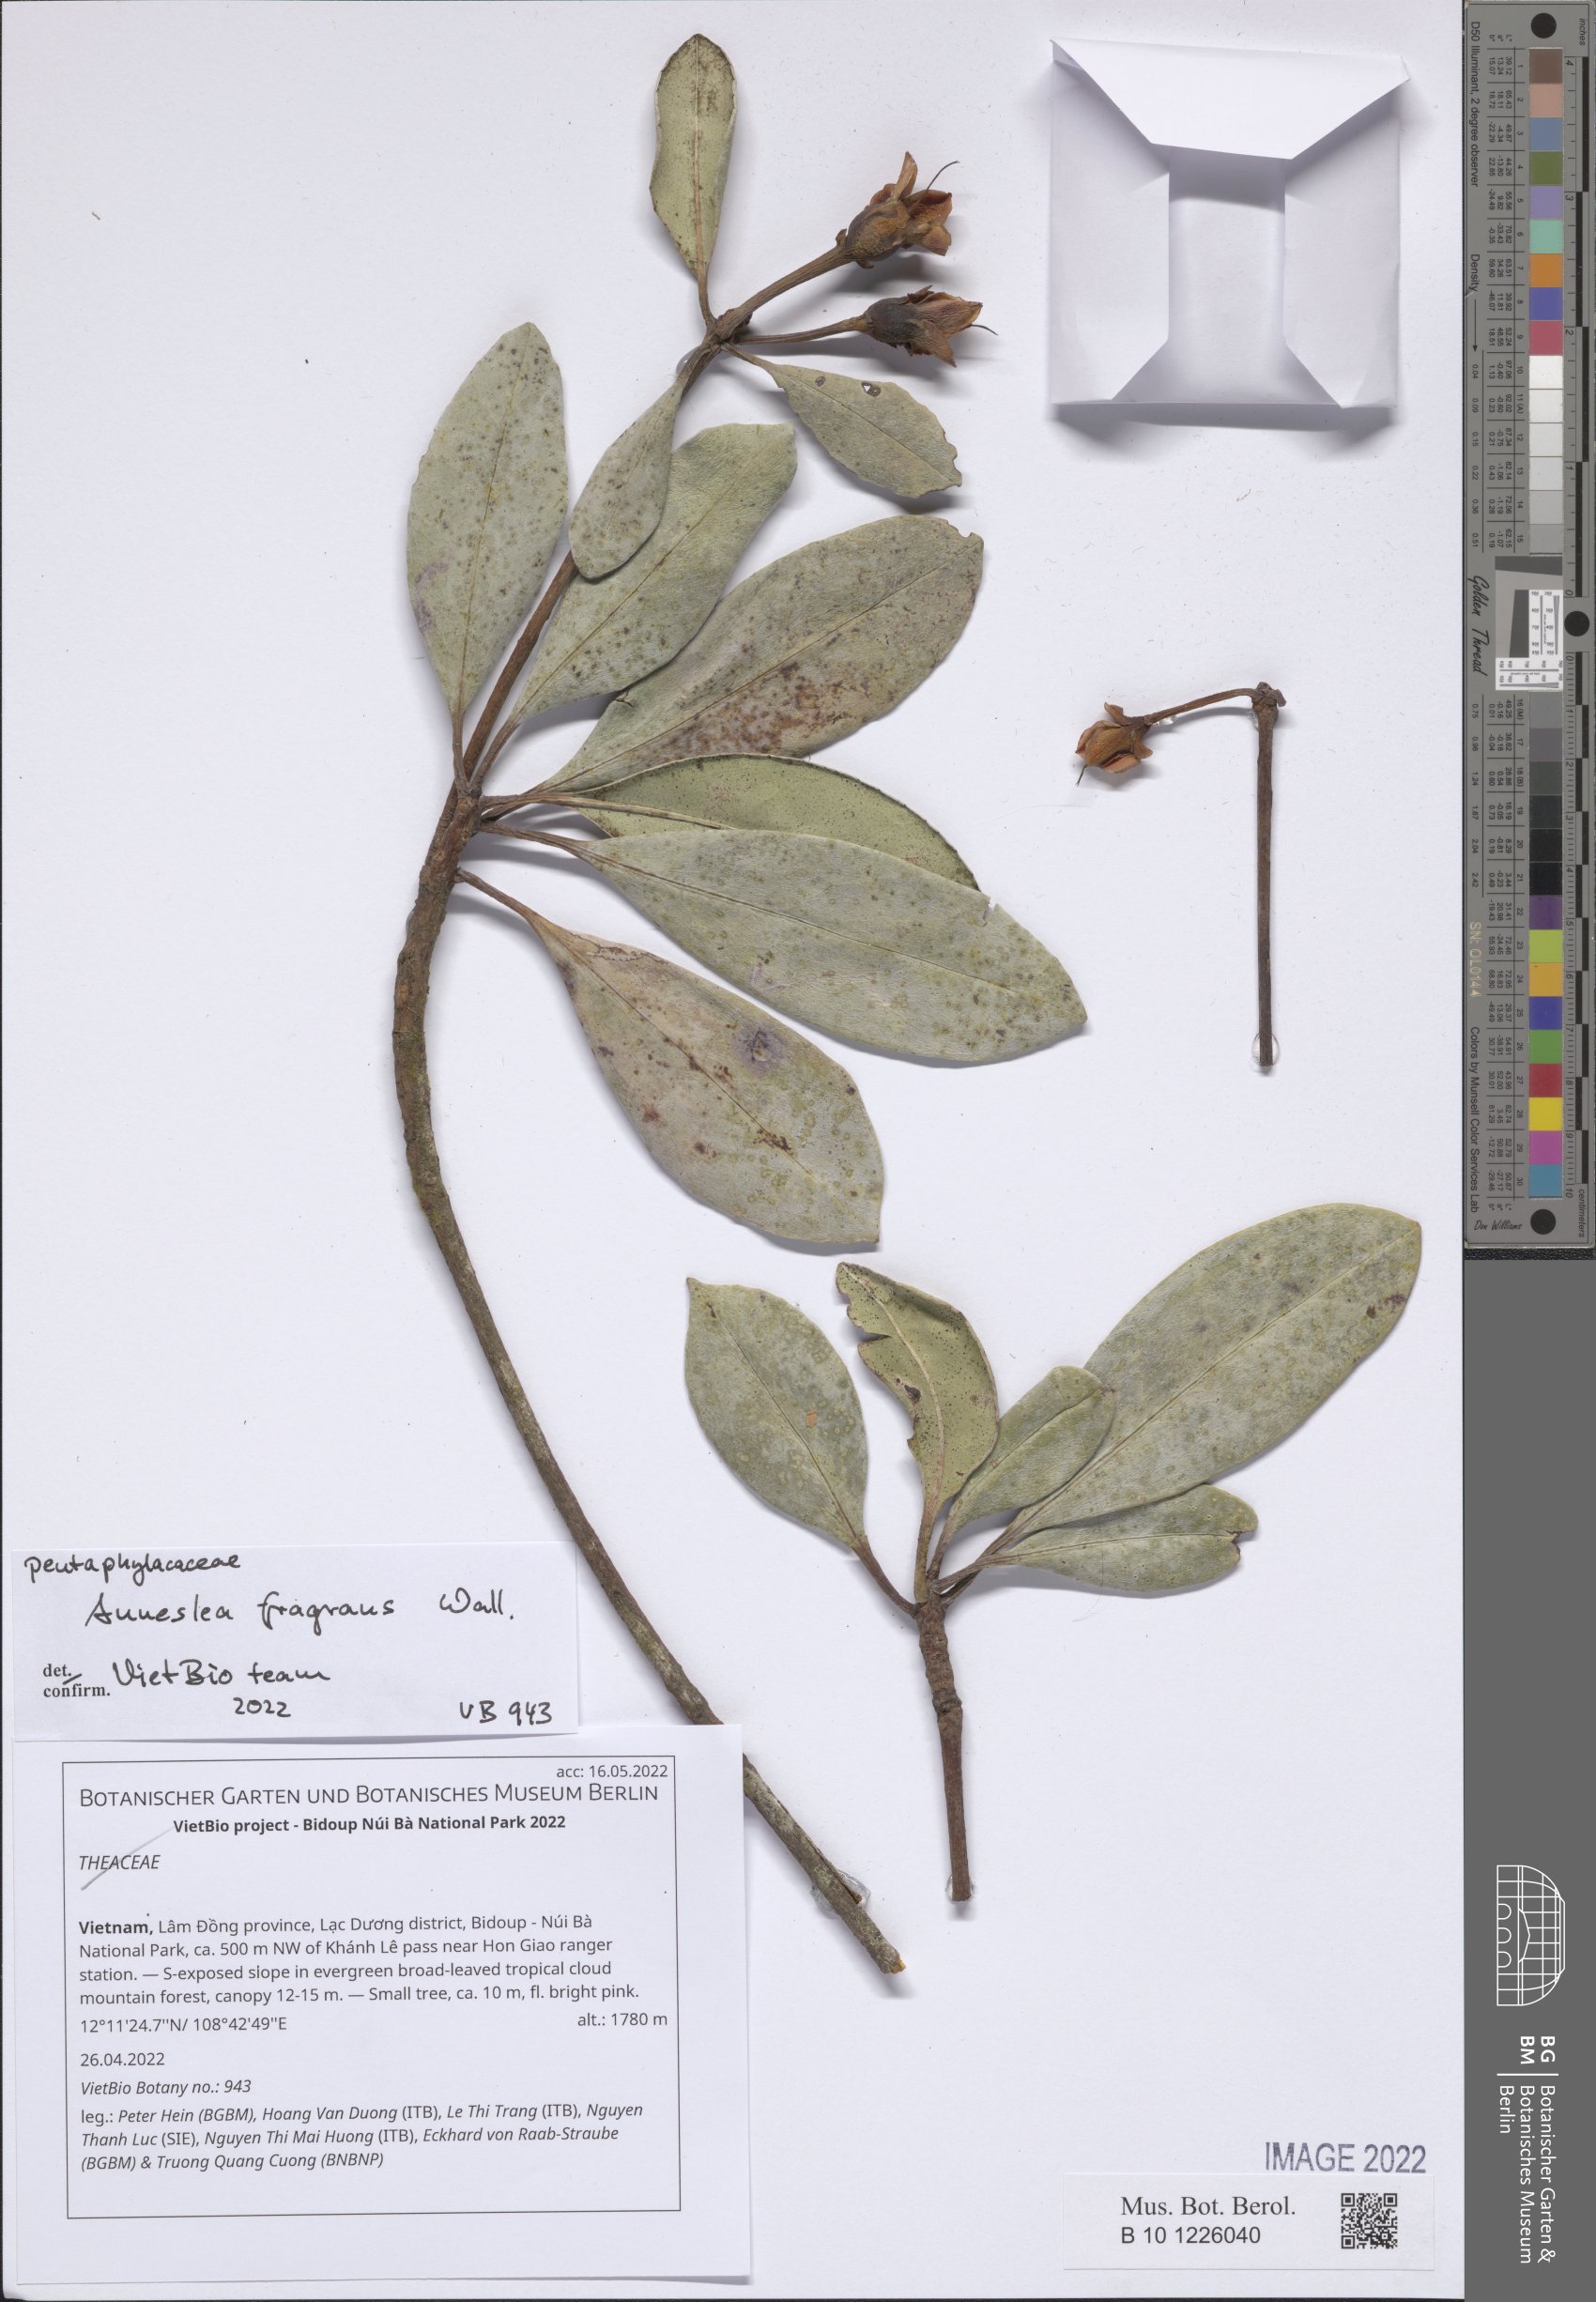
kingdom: Plantae
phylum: Tracheophyta
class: Magnoliopsida
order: Ericales
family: Theaceae
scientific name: Theaceae
